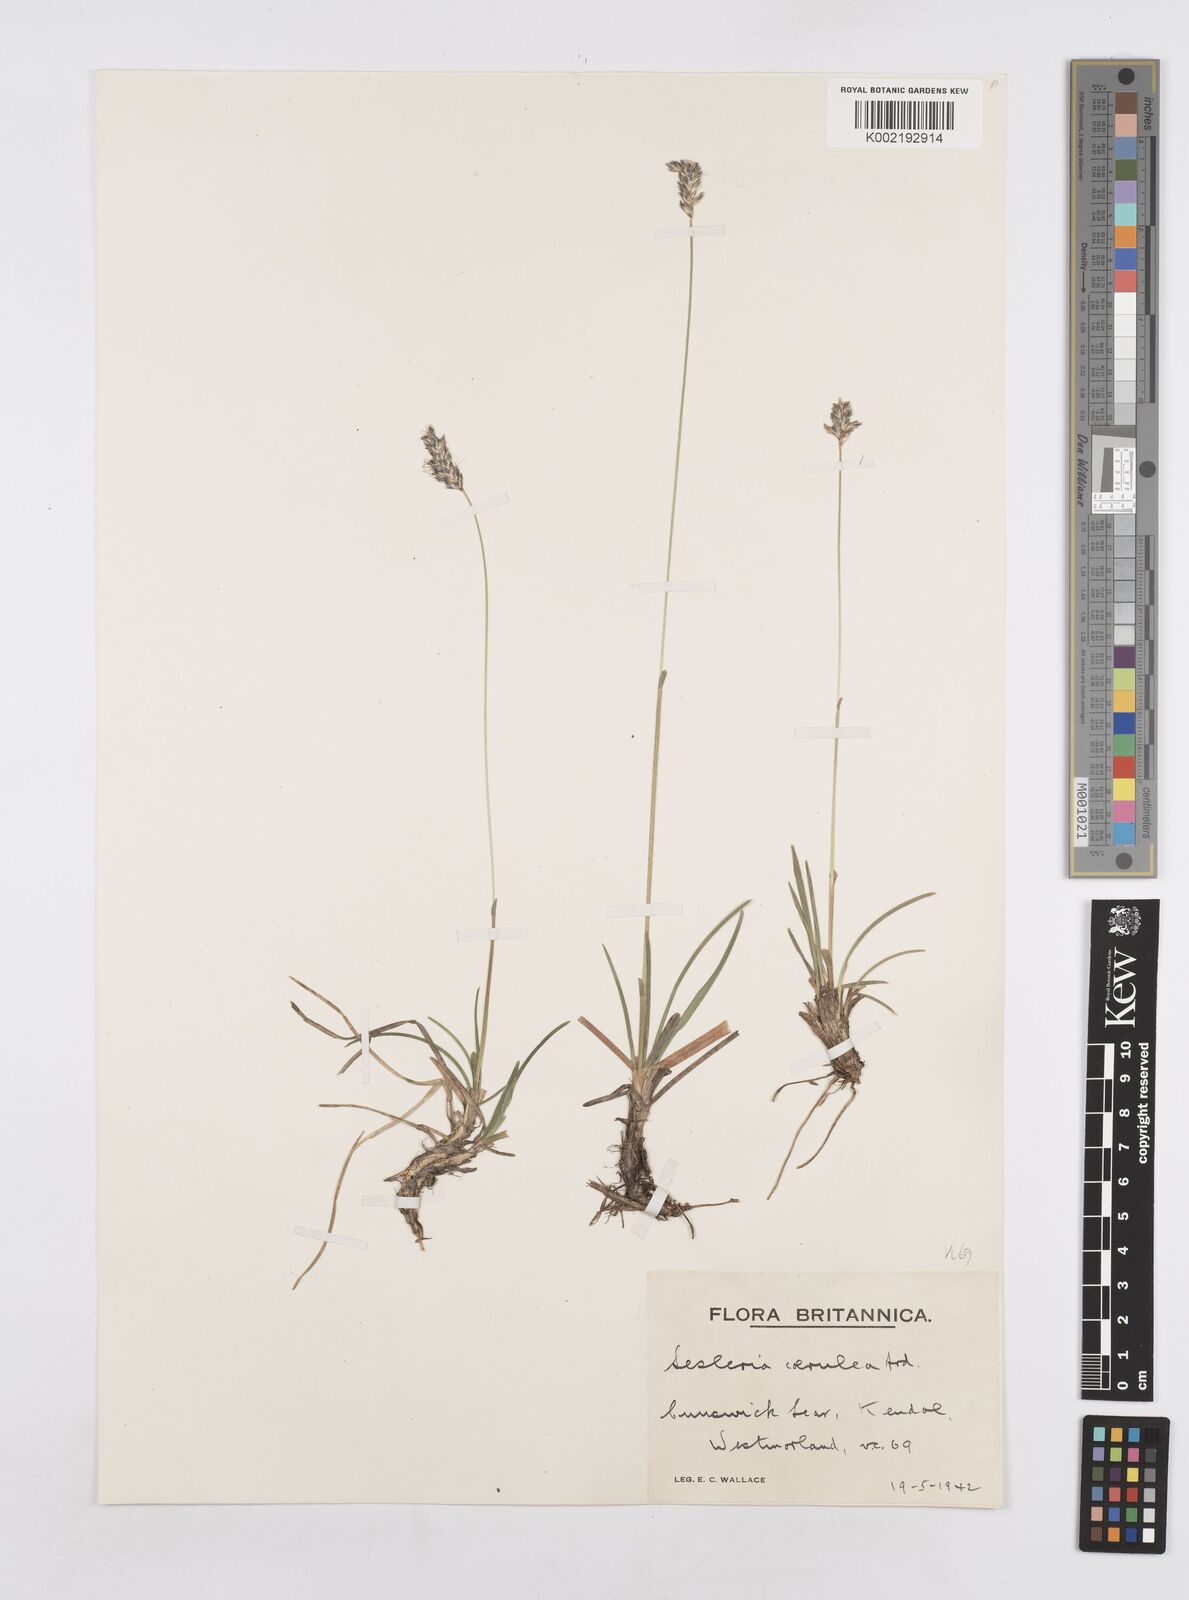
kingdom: Plantae
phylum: Tracheophyta
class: Liliopsida
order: Poales
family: Poaceae
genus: Sesleria
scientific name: Sesleria caerulea
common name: Blue moor-grass
